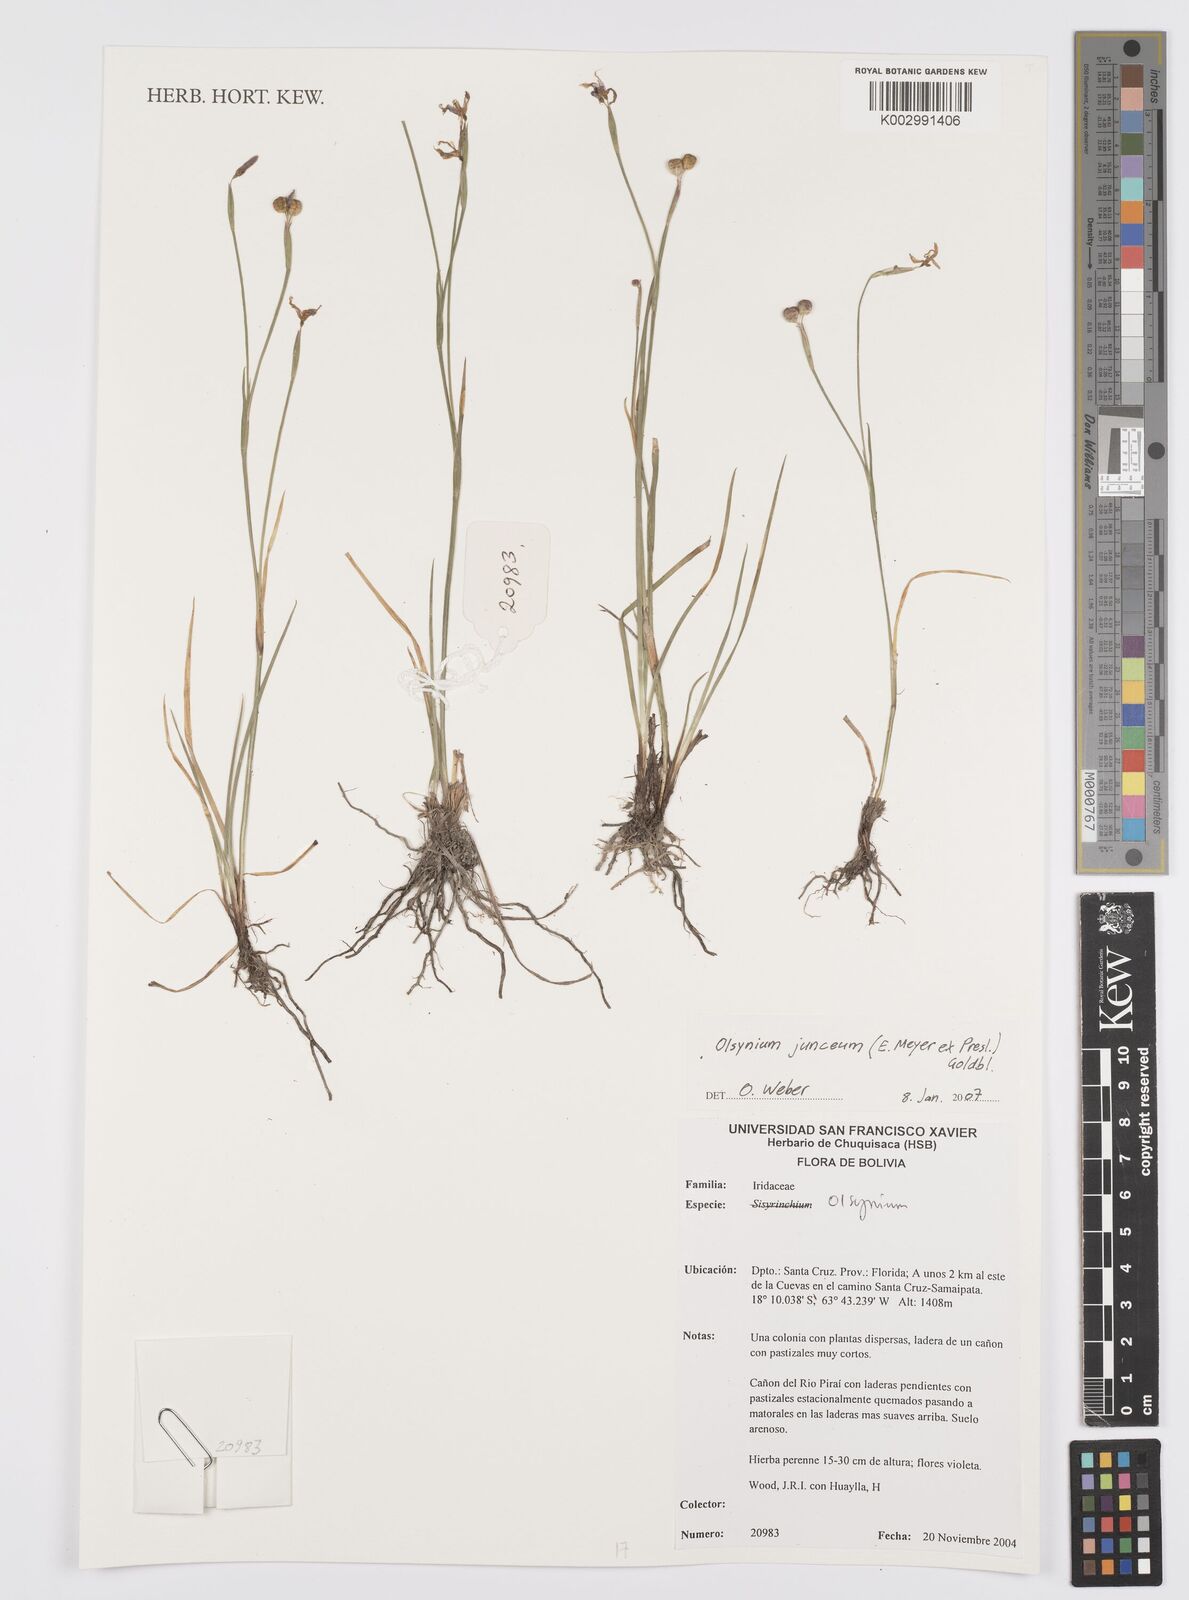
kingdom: Plantae
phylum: Tracheophyta
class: Liliopsida
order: Asparagales
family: Iridaceae
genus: Olsynium
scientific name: Olsynium junceum
